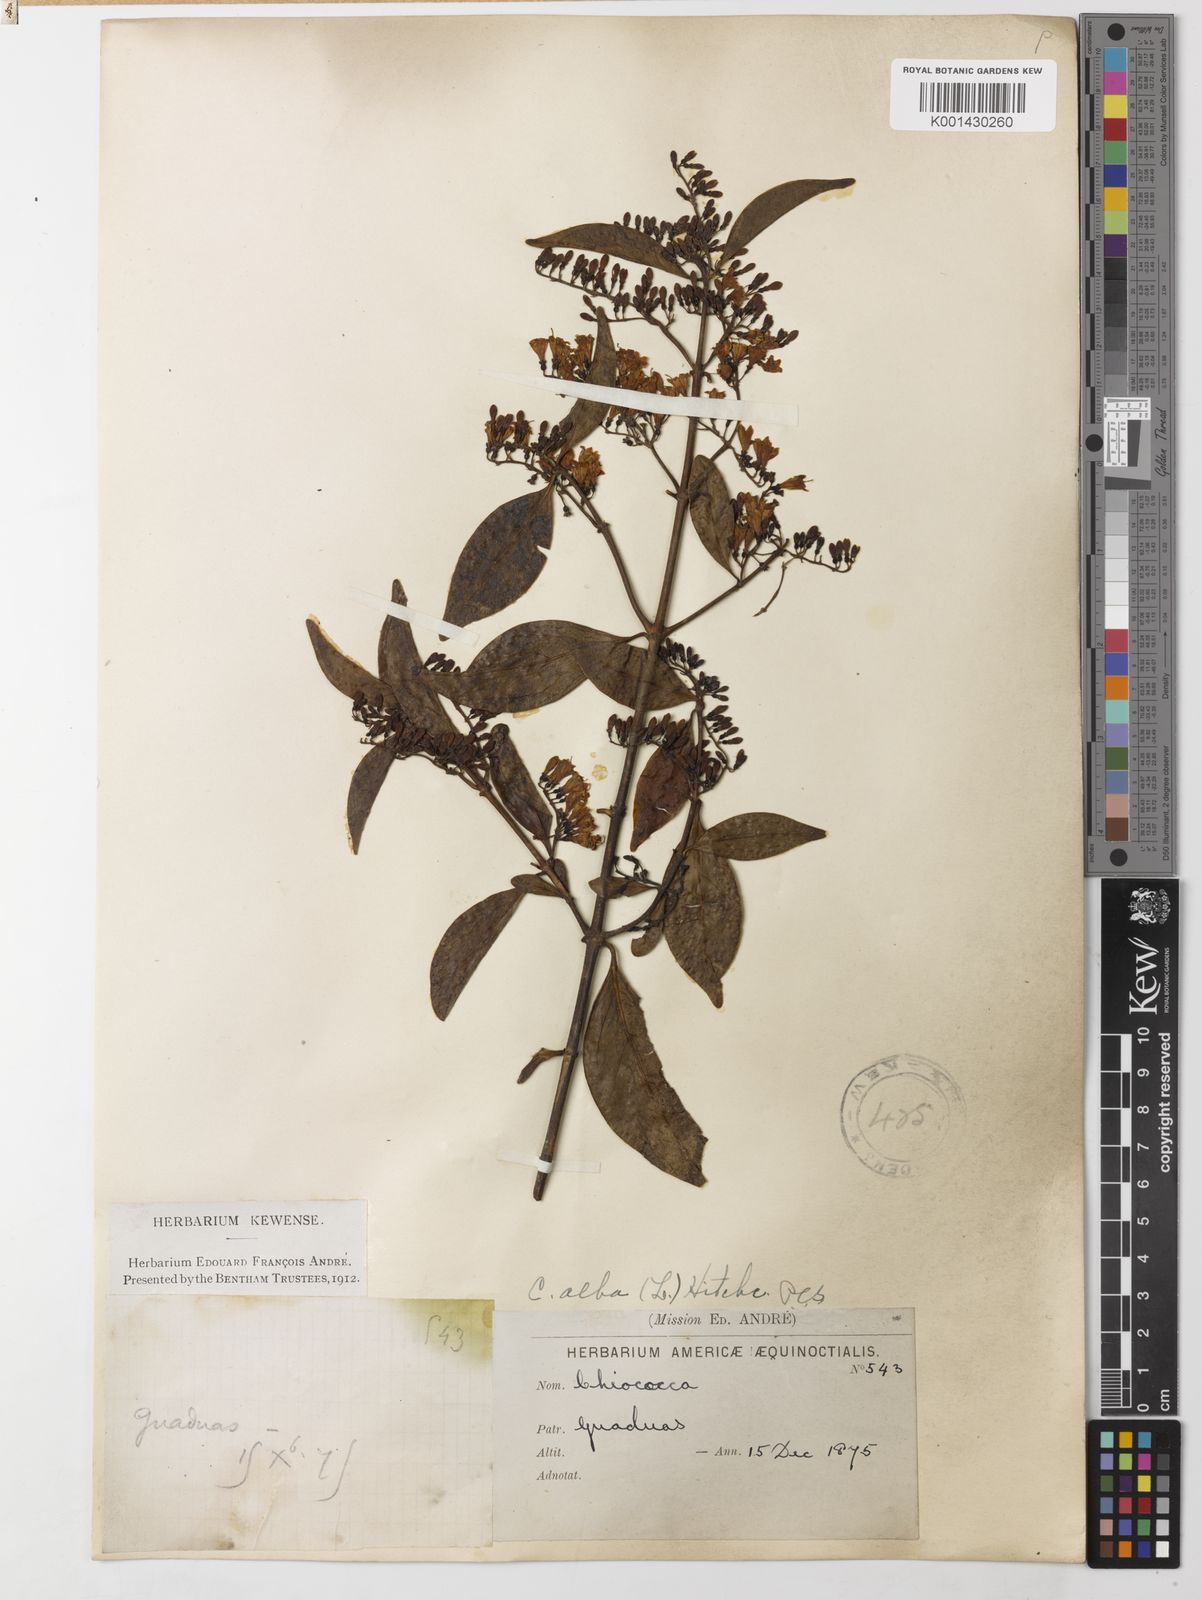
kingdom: Plantae
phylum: Tracheophyta
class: Magnoliopsida
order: Gentianales
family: Rubiaceae
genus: Chiococca
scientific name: Chiococca alba
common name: Snowberry
